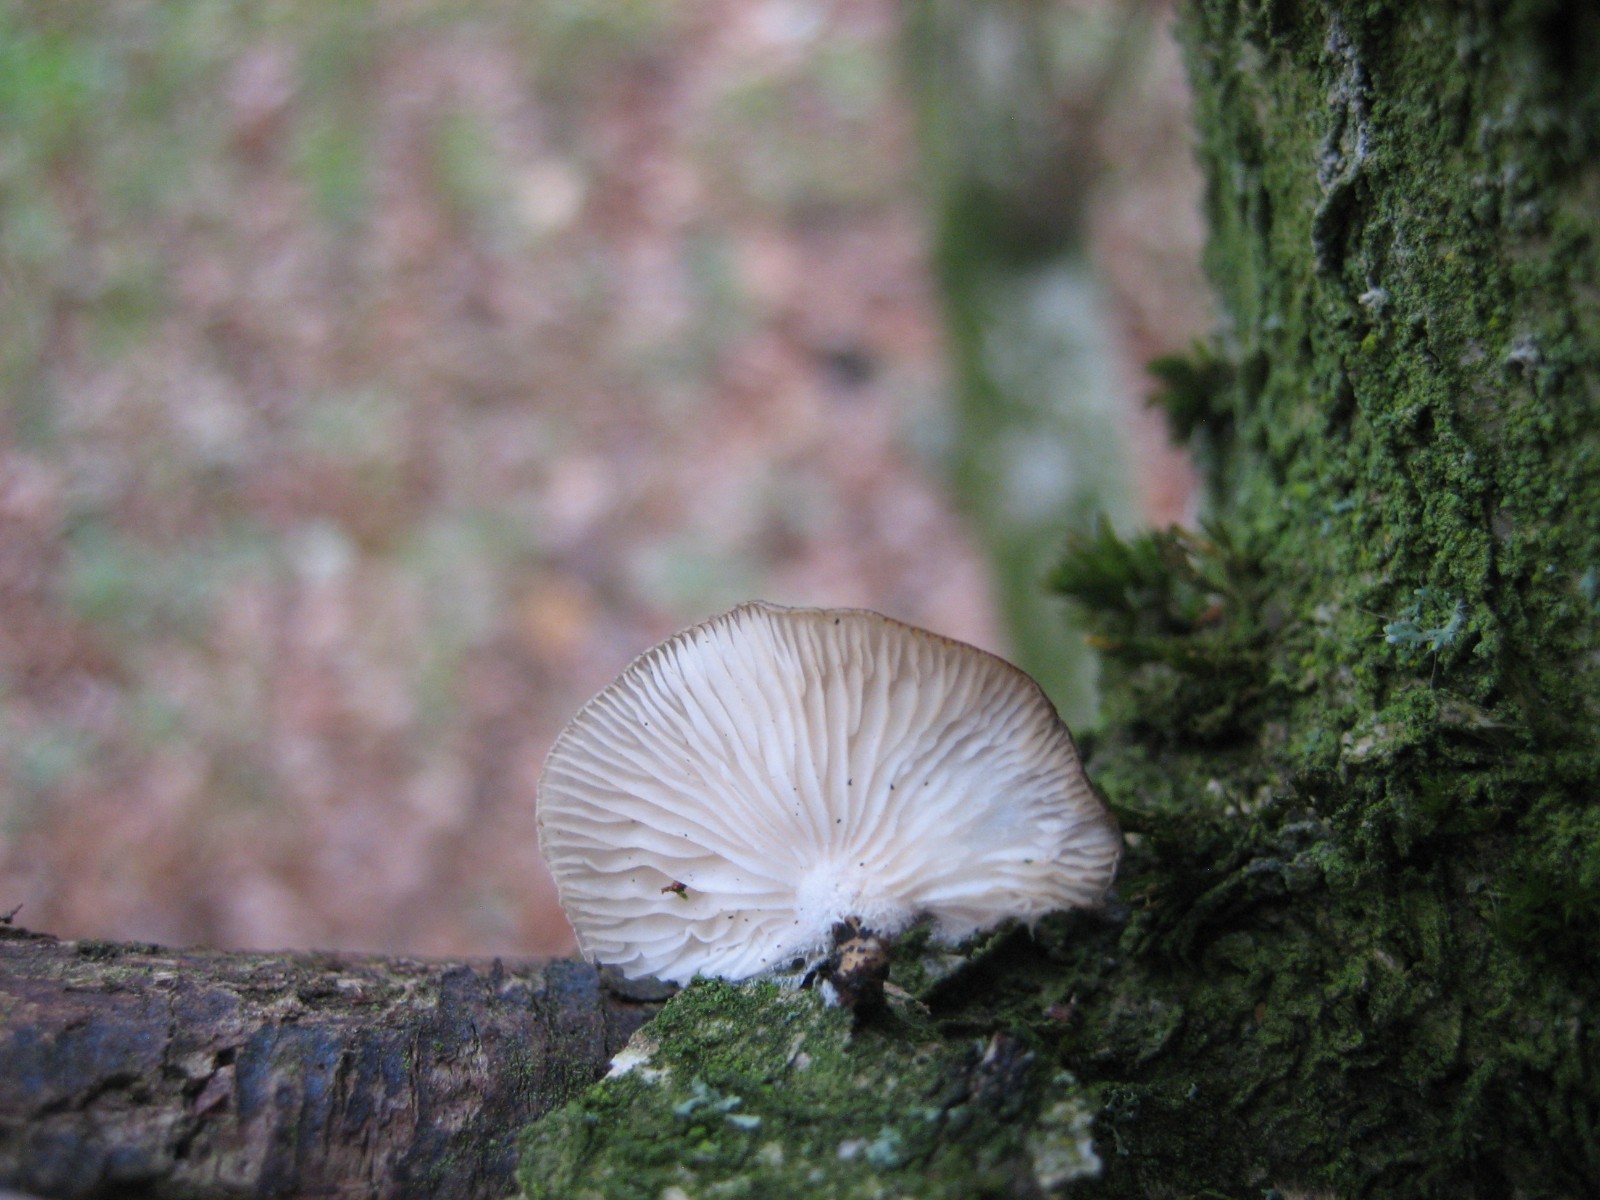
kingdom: Fungi
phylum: Basidiomycota
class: Agaricomycetes
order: Agaricales
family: Pleurotaceae
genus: Hohenbuehelia
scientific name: Hohenbuehelia
